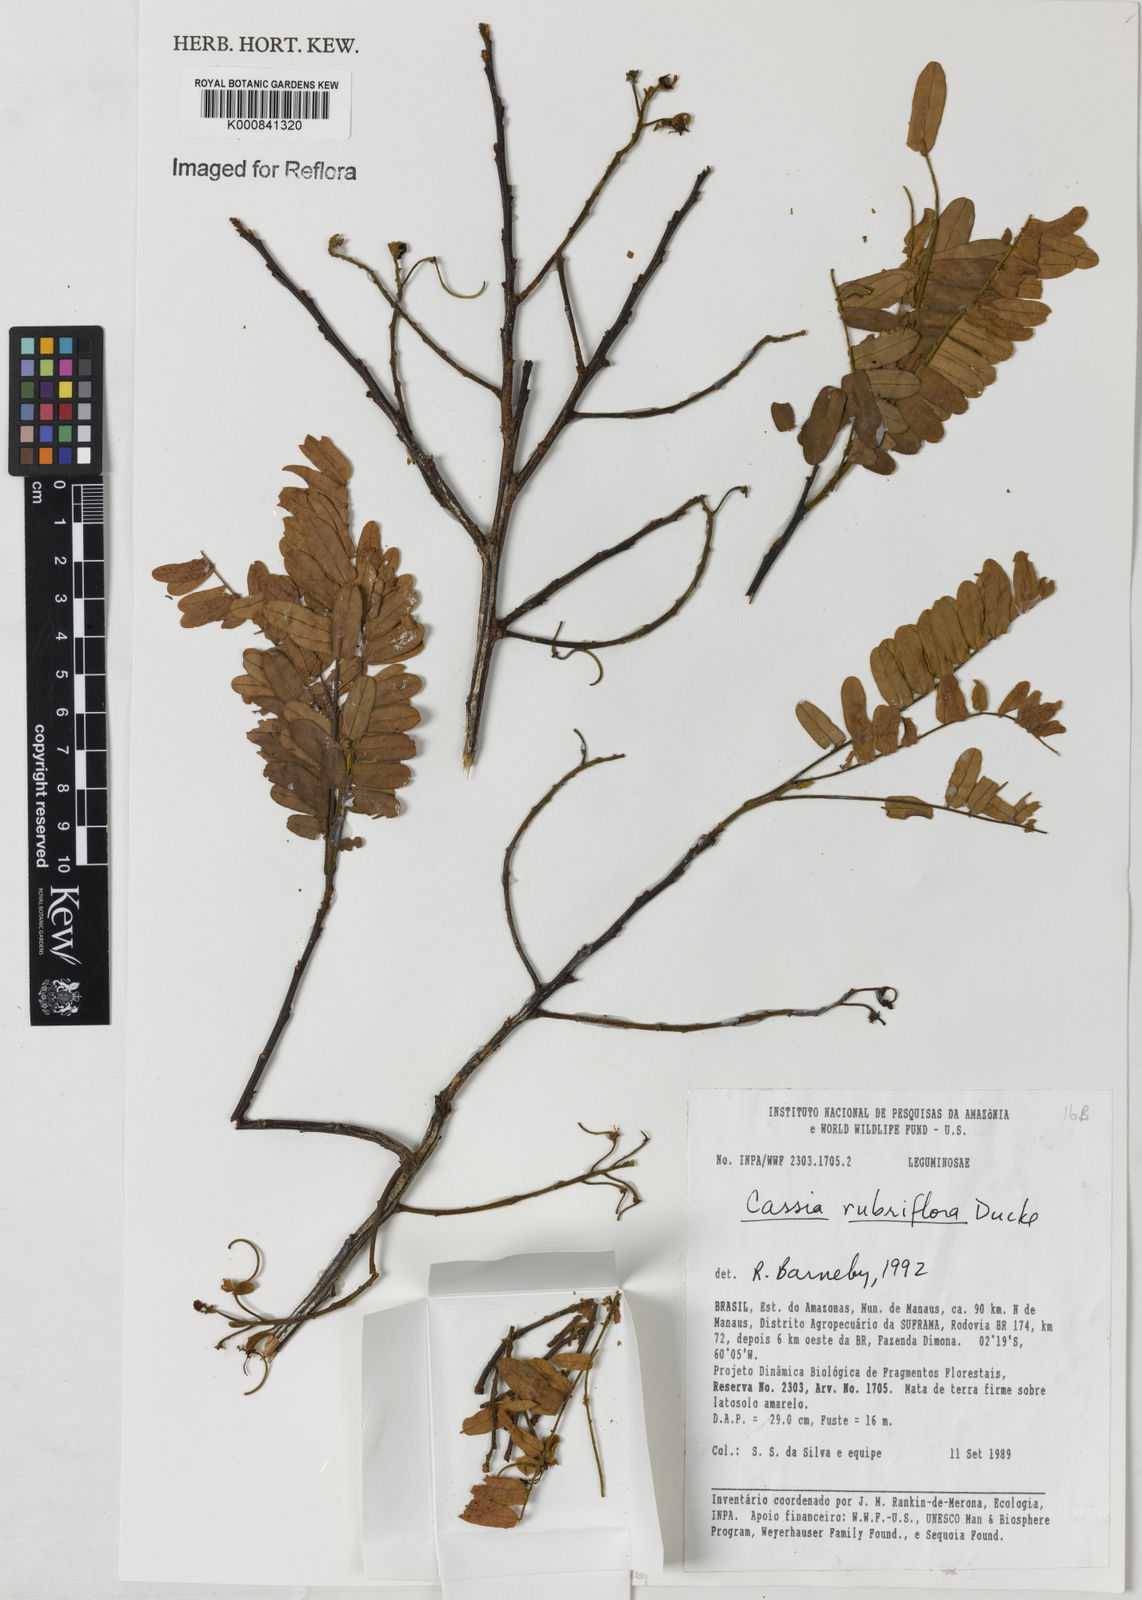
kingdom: Plantae
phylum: Tracheophyta
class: Magnoliopsida
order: Fabales
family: Fabaceae
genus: Cassia
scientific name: Cassia rubriflora
